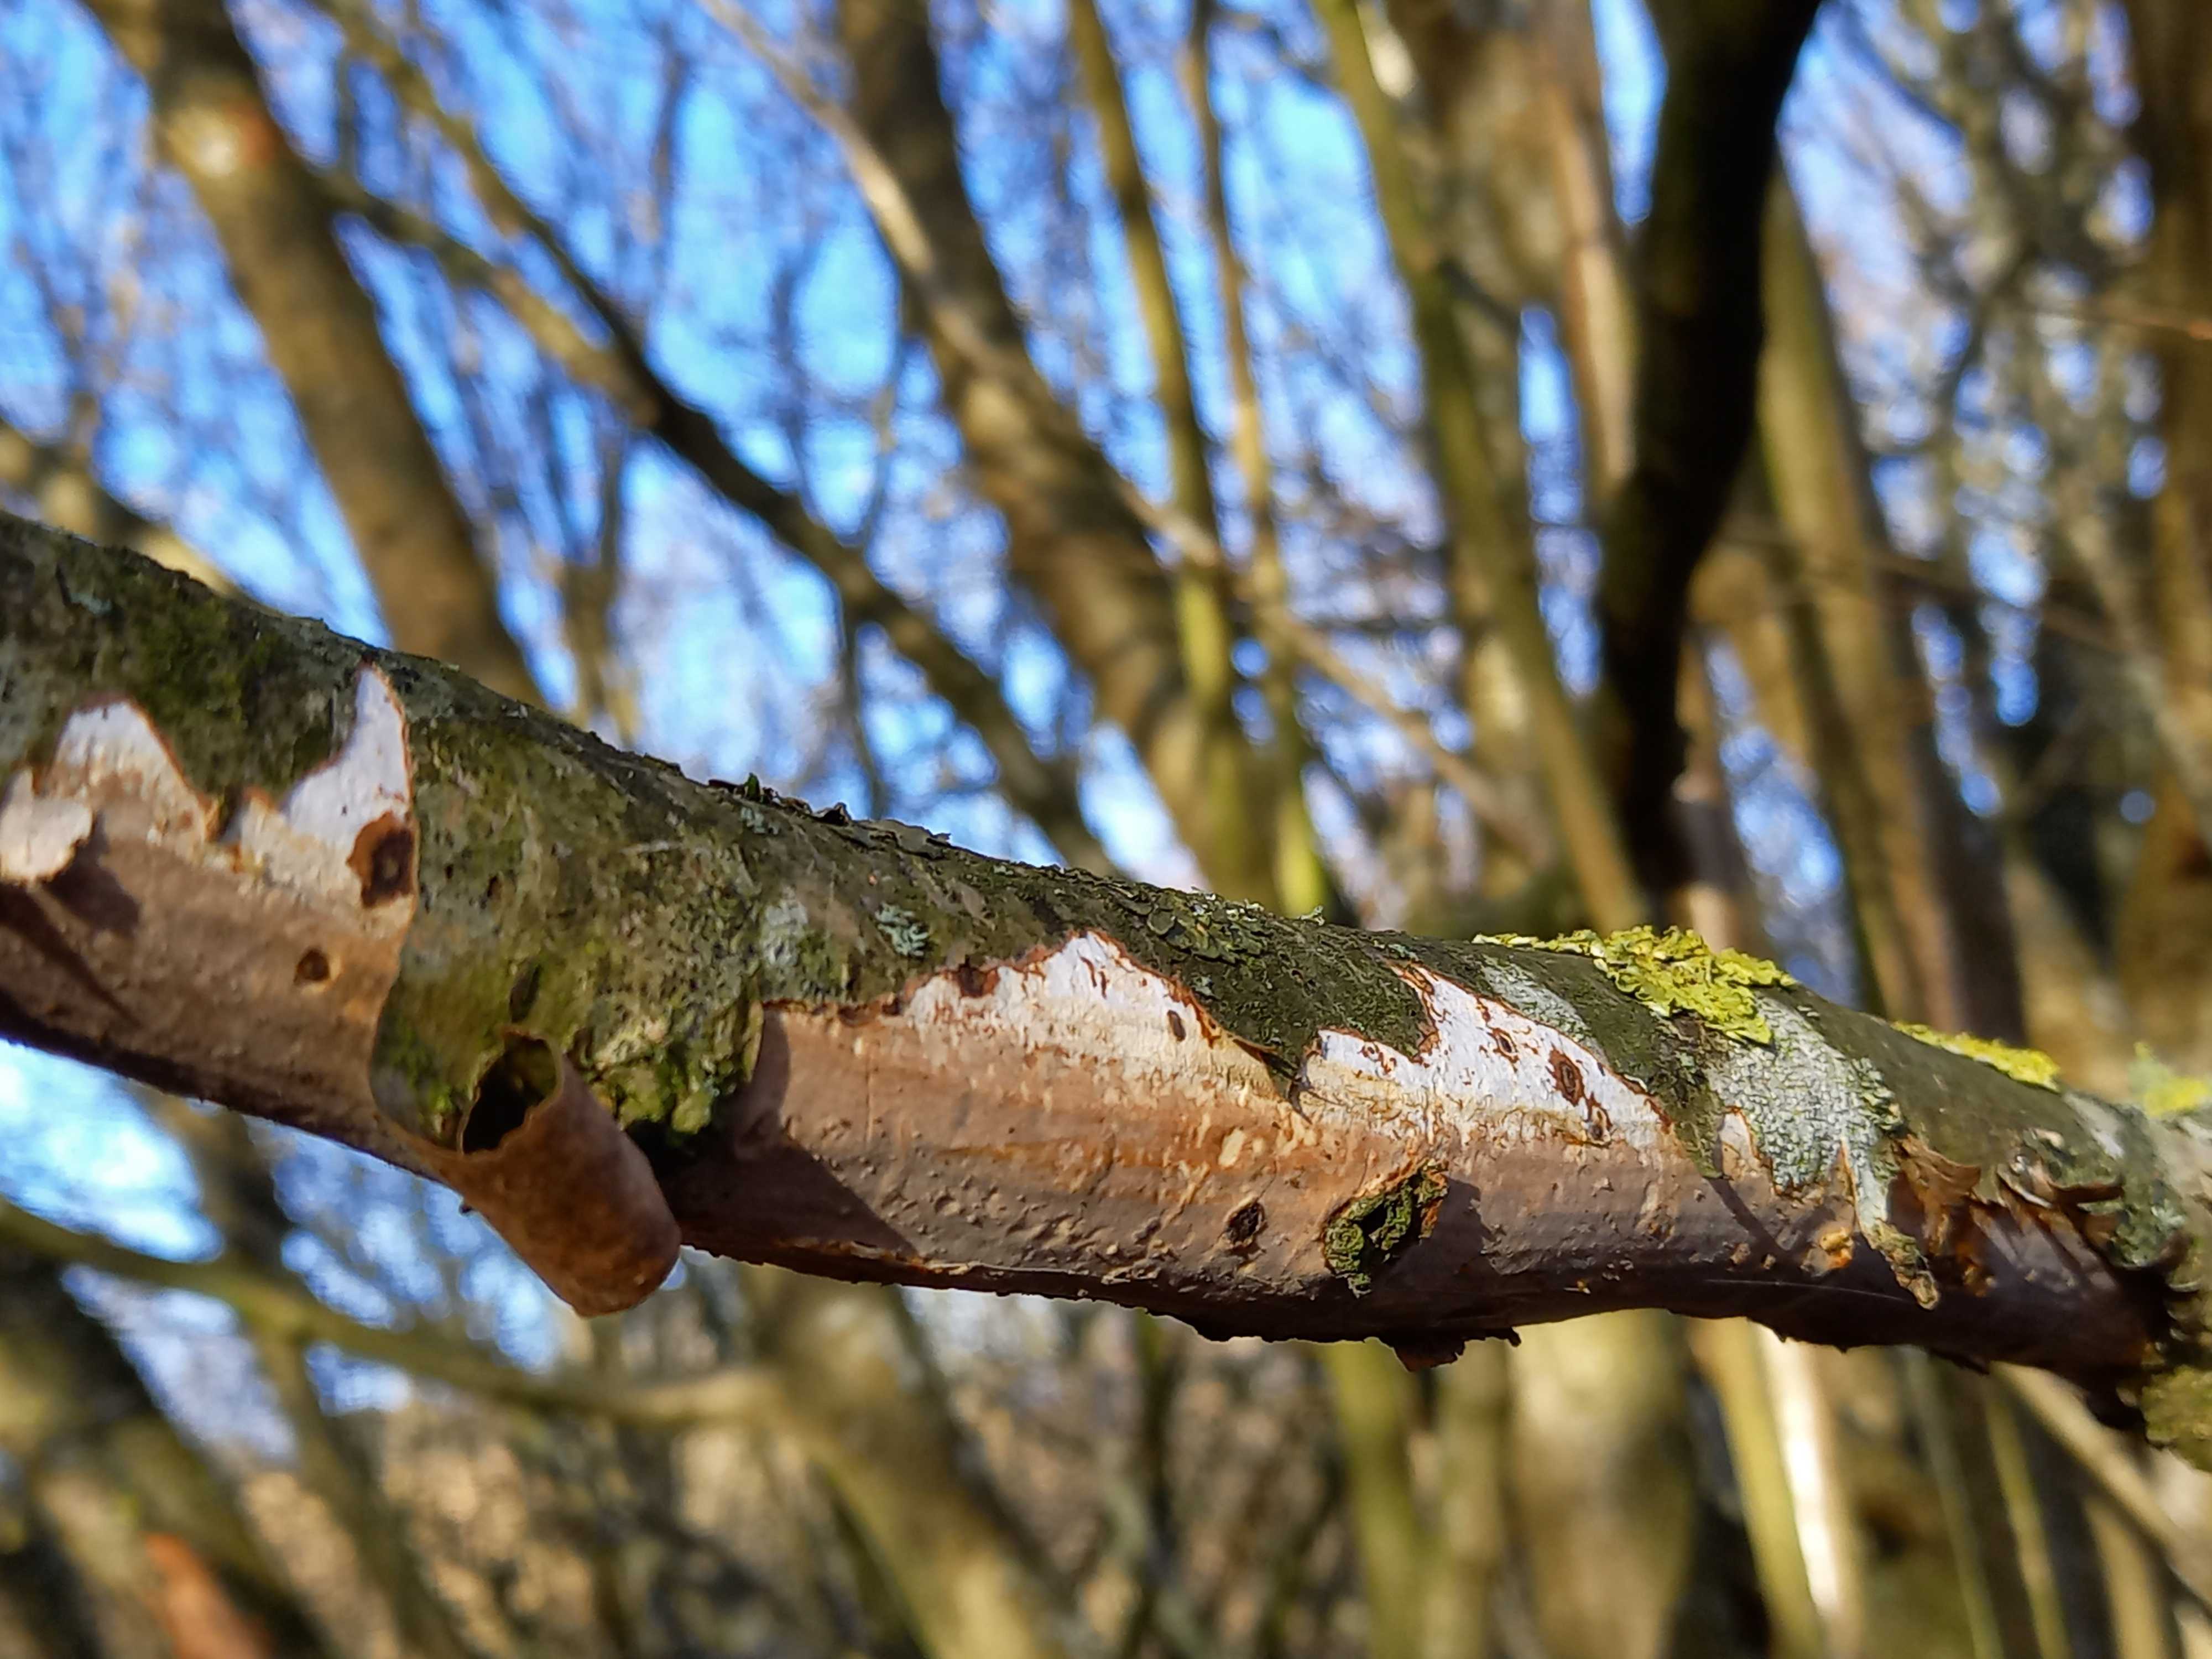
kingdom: Fungi
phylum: Basidiomycota
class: Agaricomycetes
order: Corticiales
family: Vuilleminiaceae
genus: Vuilleminia
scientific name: Vuilleminia coryli
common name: hassel-barksprænger
